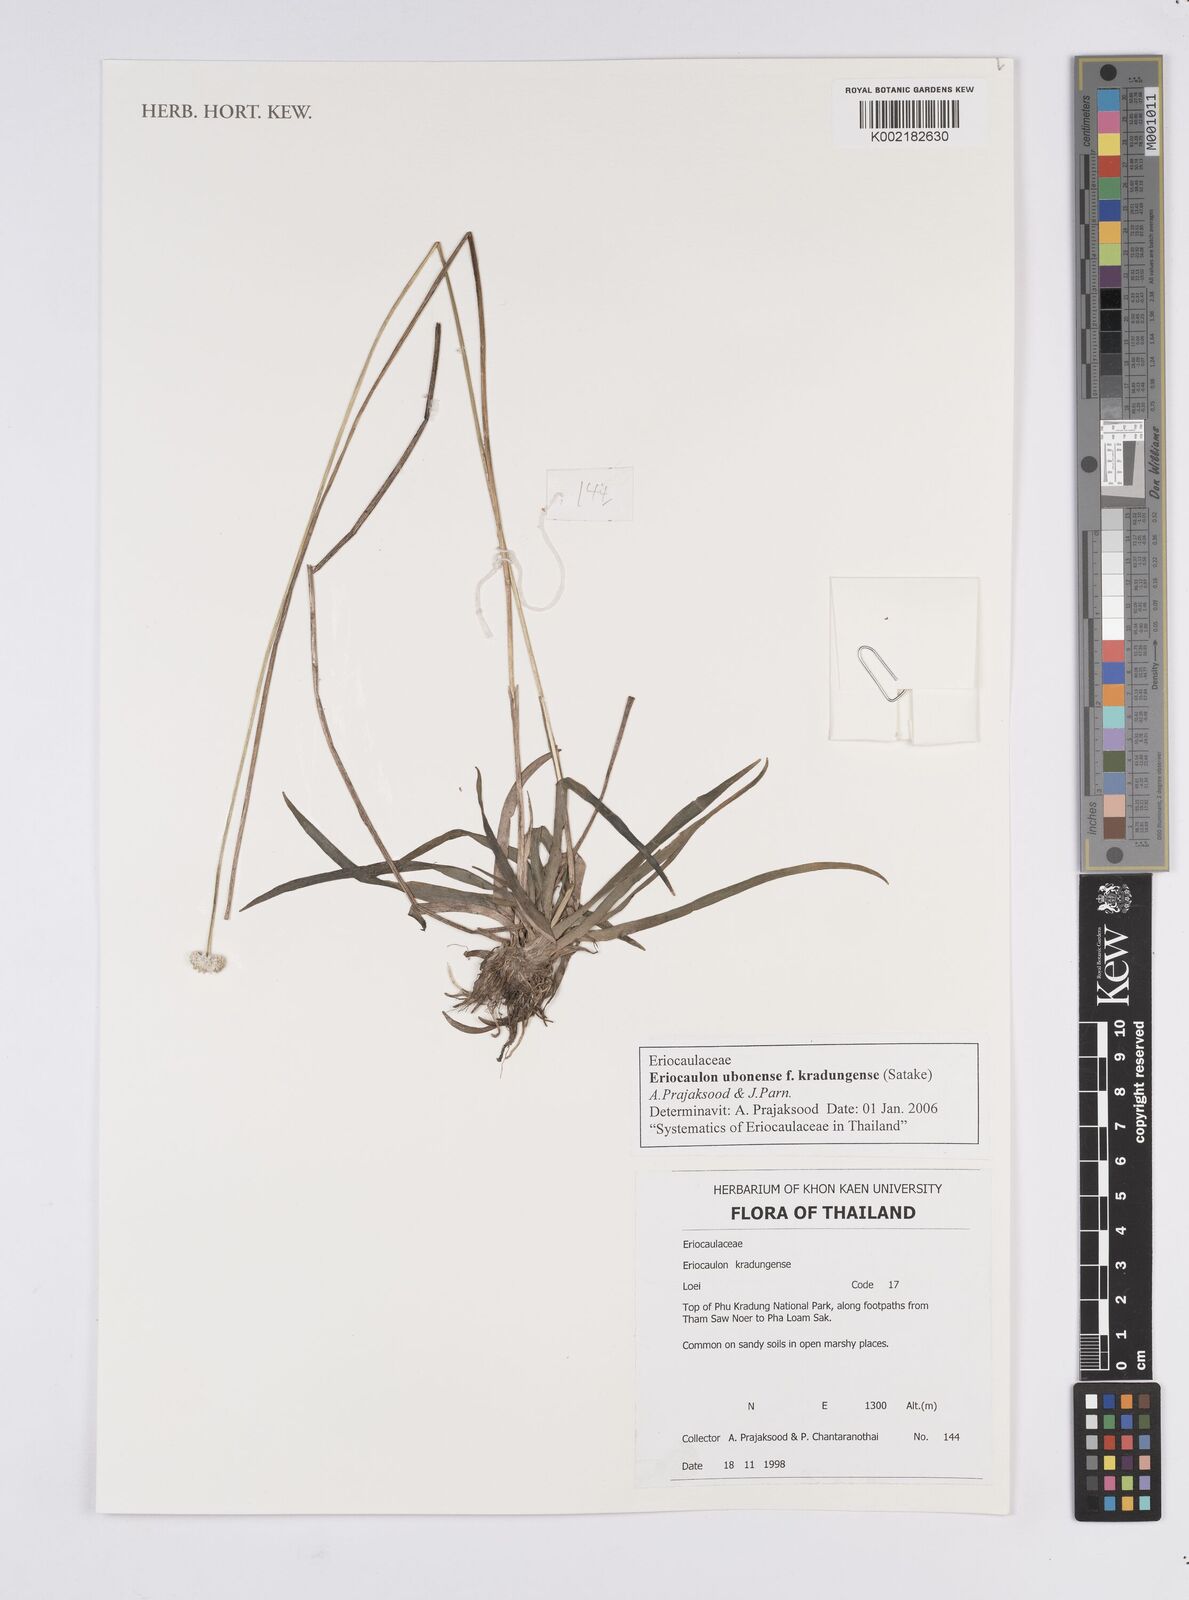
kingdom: Plantae
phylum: Tracheophyta
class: Liliopsida
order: Poales
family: Eriocaulaceae
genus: Eriocaulon
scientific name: Eriocaulon ubonense
